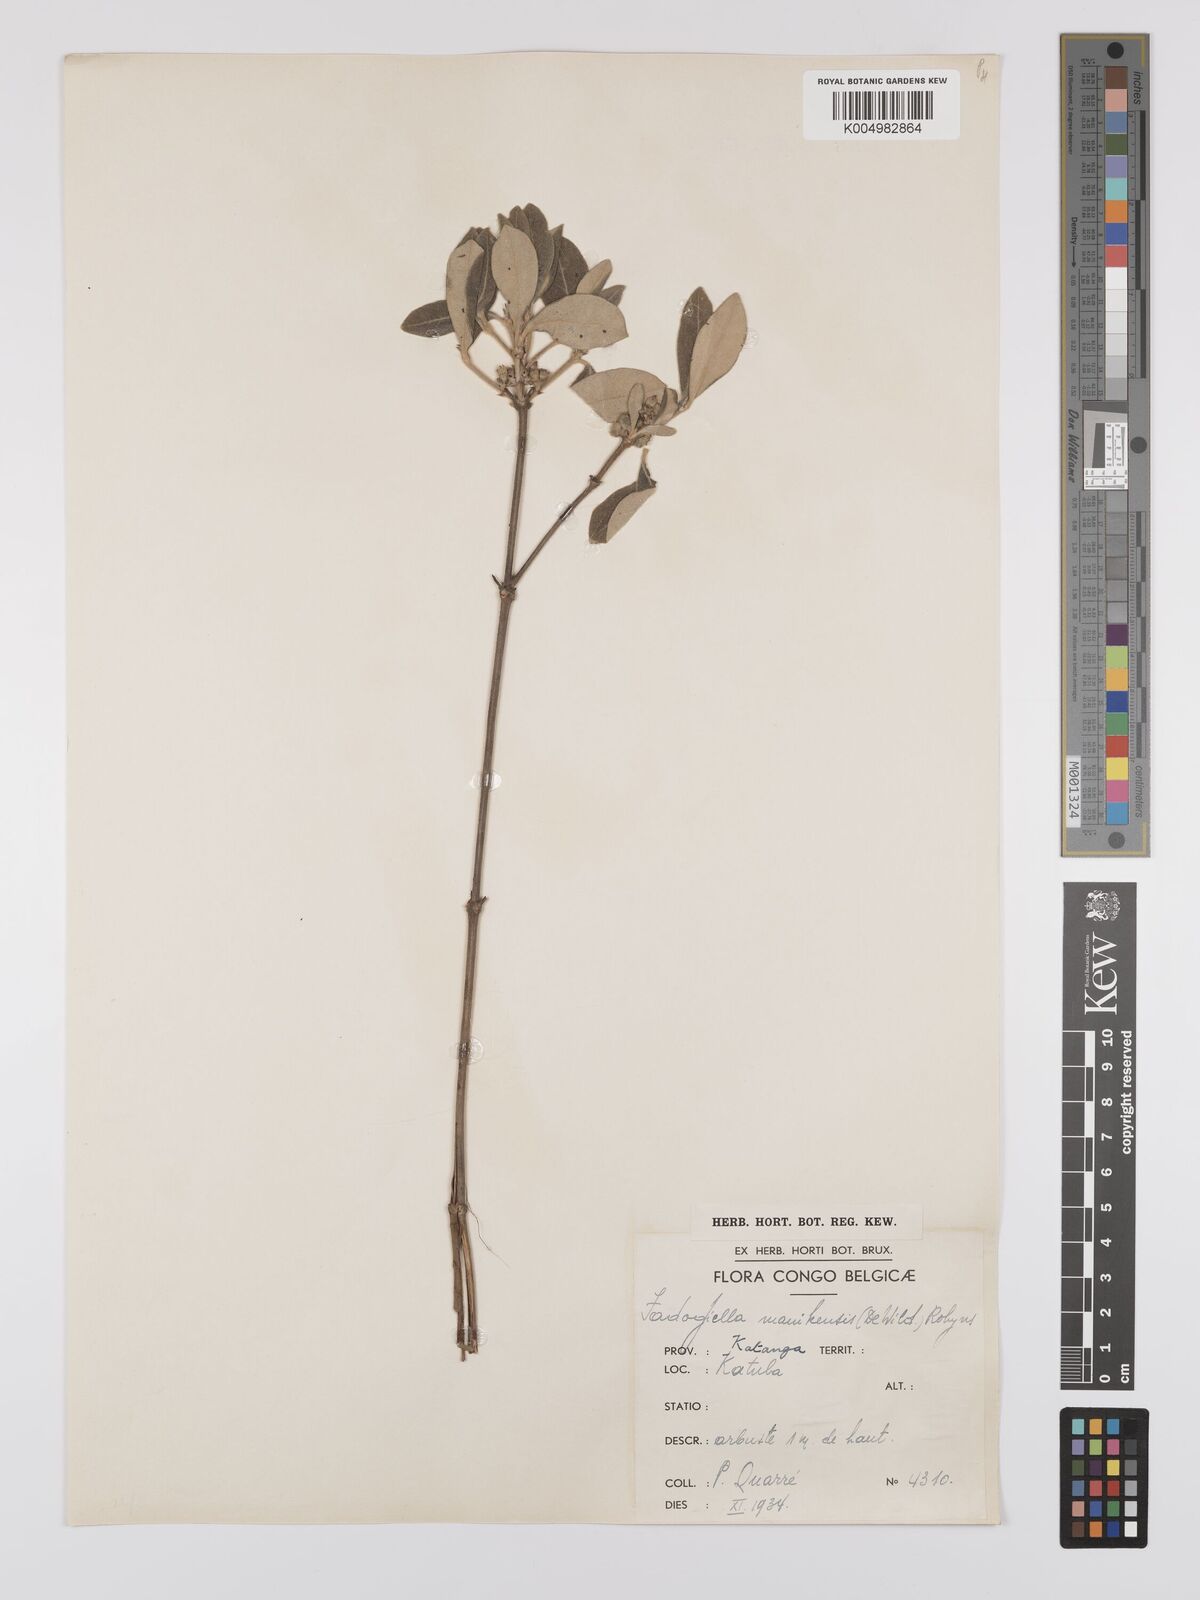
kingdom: Plantae
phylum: Tracheophyta
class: Magnoliopsida
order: Gentianales
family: Rubiaceae
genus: Fadogiella
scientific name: Fadogiella stigmatoloba
